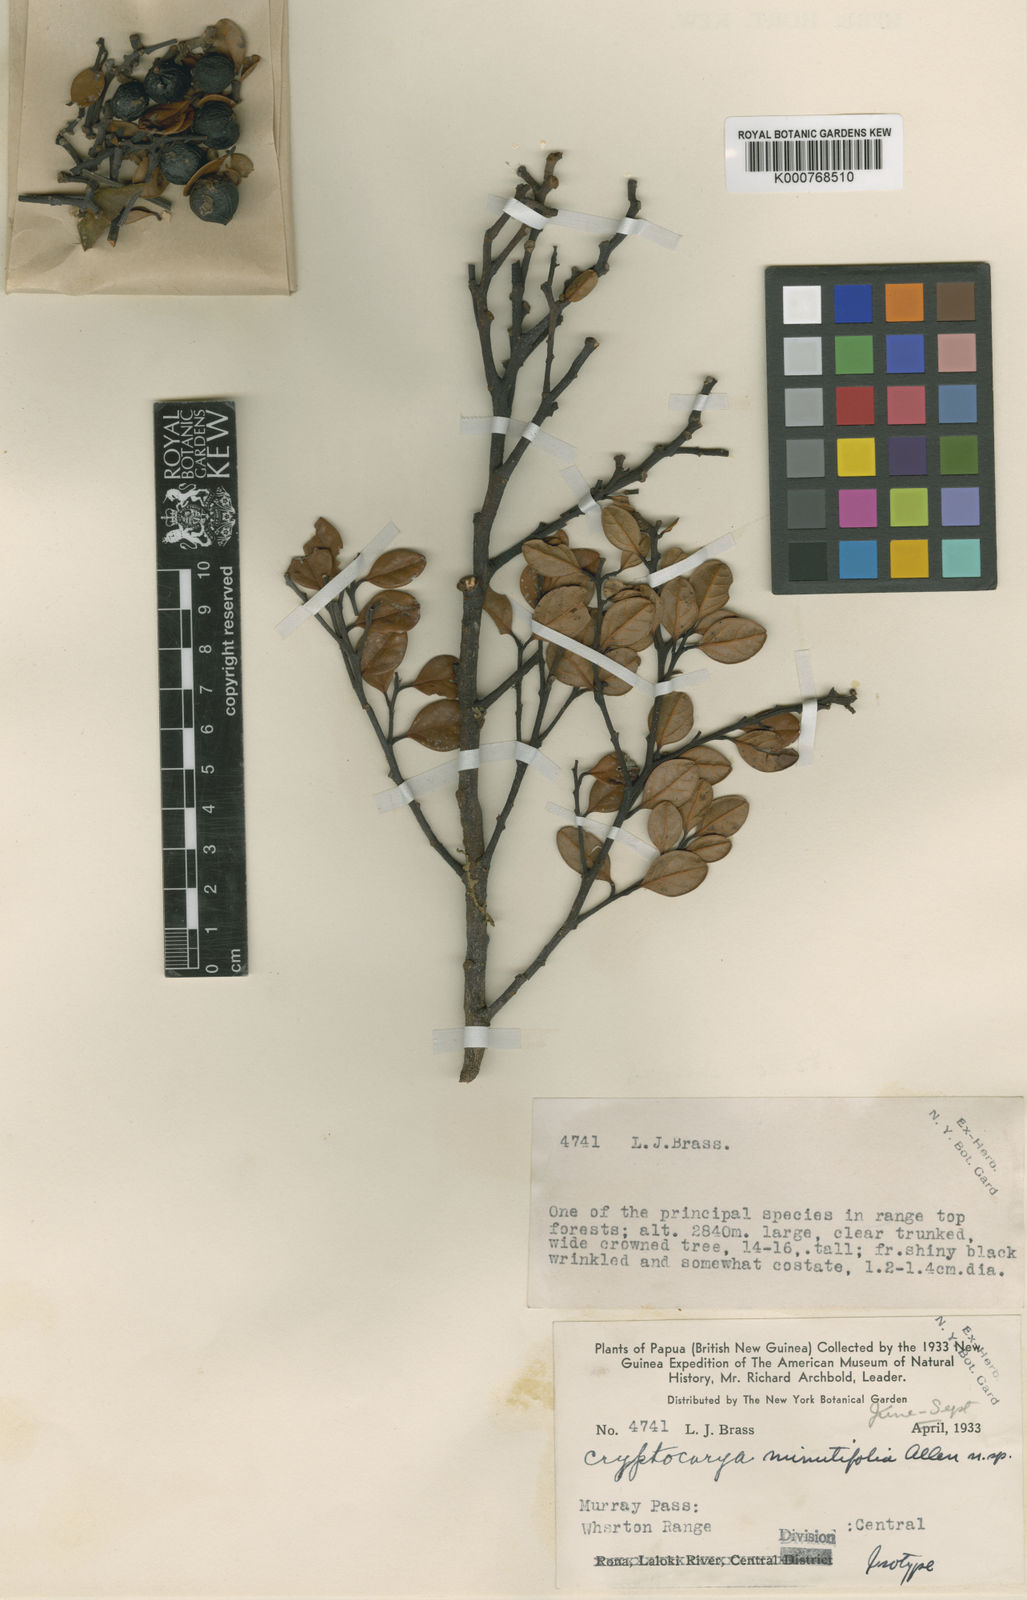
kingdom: Plantae
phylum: Tracheophyta
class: Magnoliopsida
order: Laurales
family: Lauraceae
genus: Cryptocarya
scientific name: Cryptocarya minutifolia
